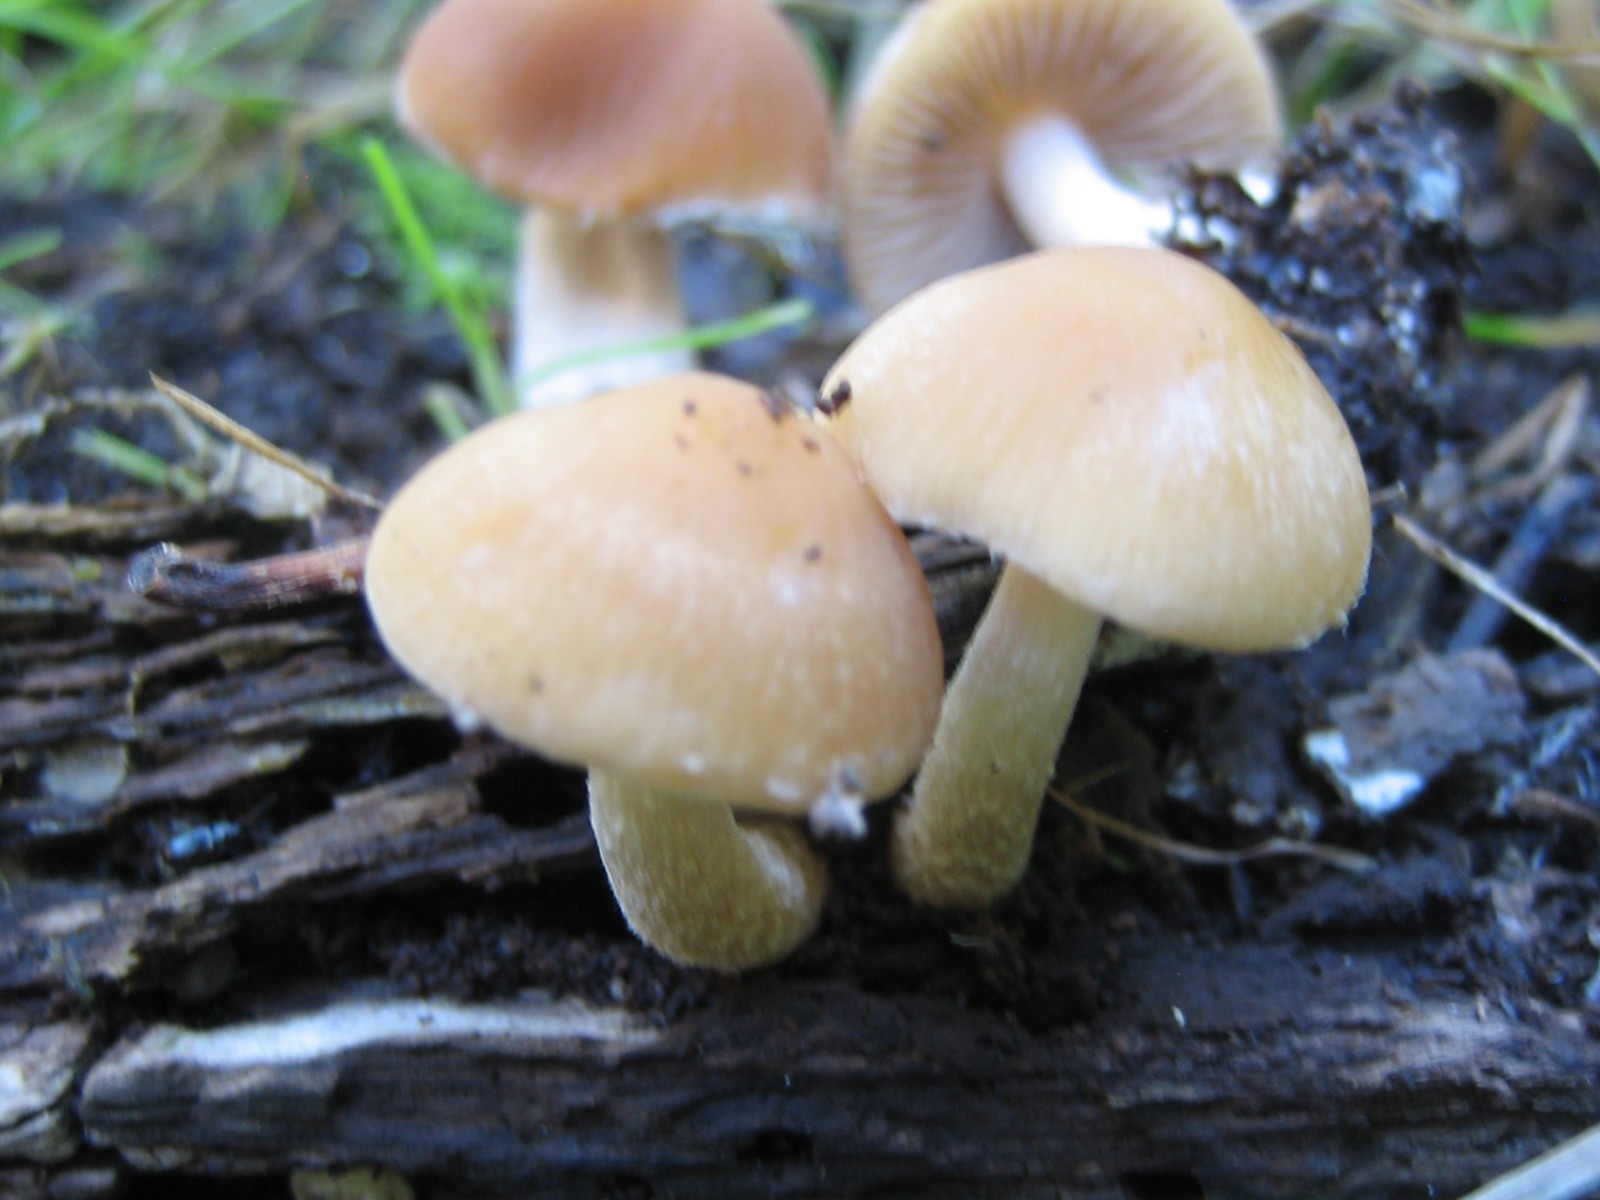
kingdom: Fungi
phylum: Basidiomycota
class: Agaricomycetes
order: Agaricales
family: Psathyrellaceae
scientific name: Psathyrellaceae
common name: mørkhatfamilien
